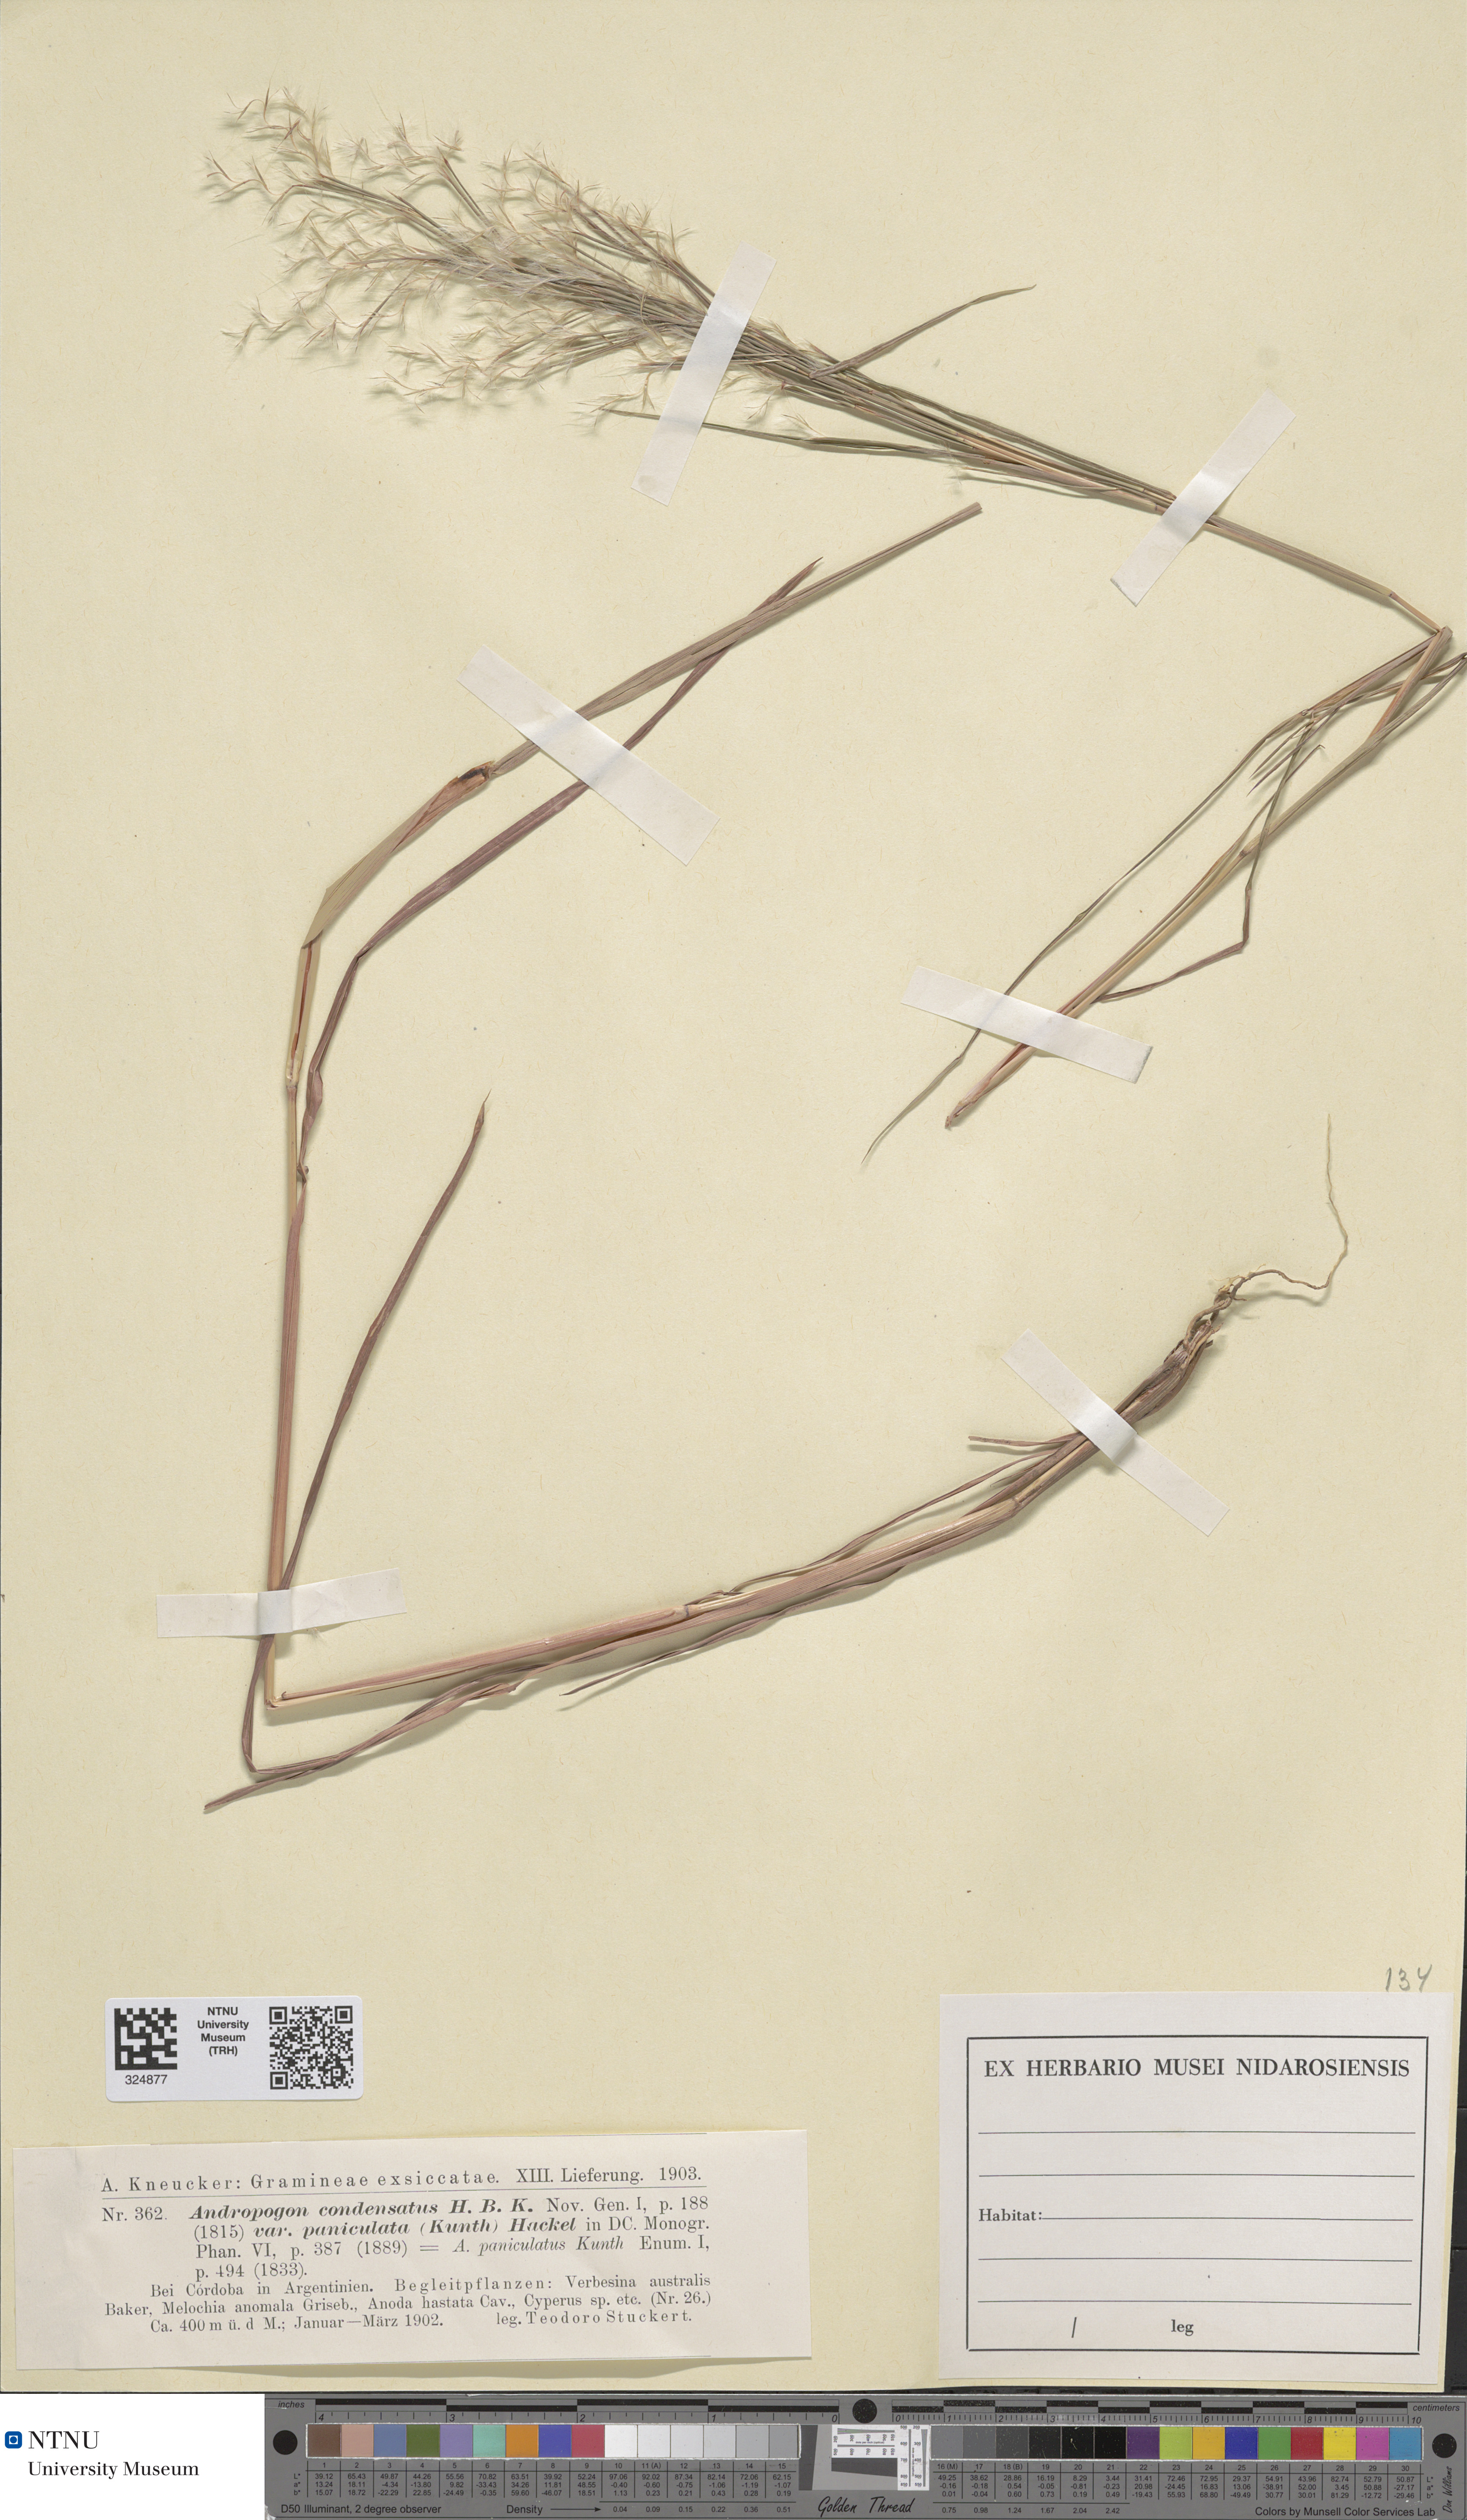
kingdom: Plantae
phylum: Tracheophyta
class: Liliopsida
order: Poales
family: Poaceae
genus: Schizachyrium
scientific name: Schizachyrium condensatum
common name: Bush beardgrass
